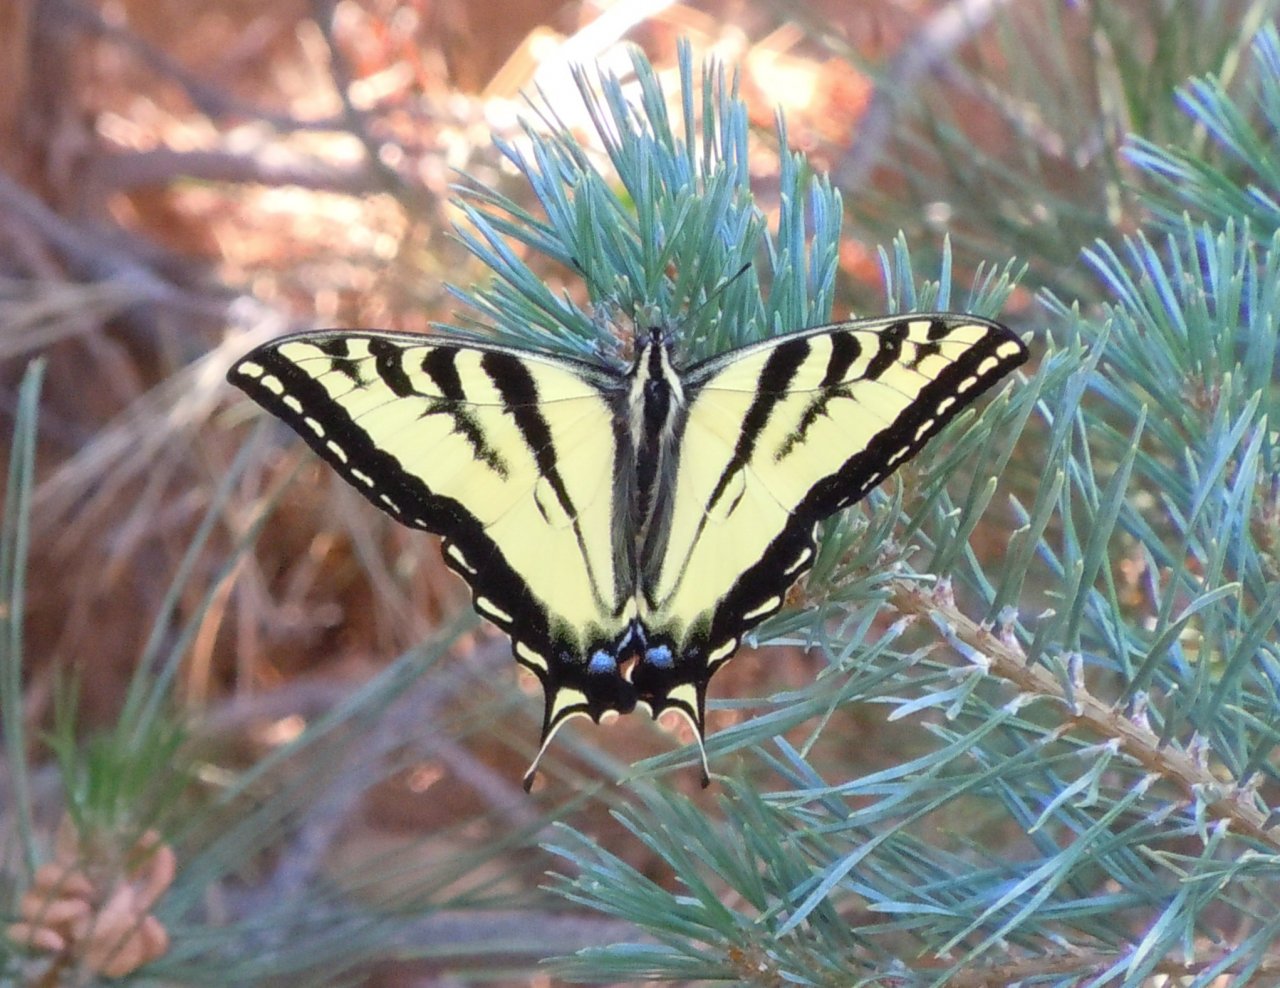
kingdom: Animalia
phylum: Arthropoda
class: Insecta
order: Lepidoptera
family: Papilionidae
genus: Pterourus
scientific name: Pterourus rutulus
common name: Western Tiger Swallowtail
